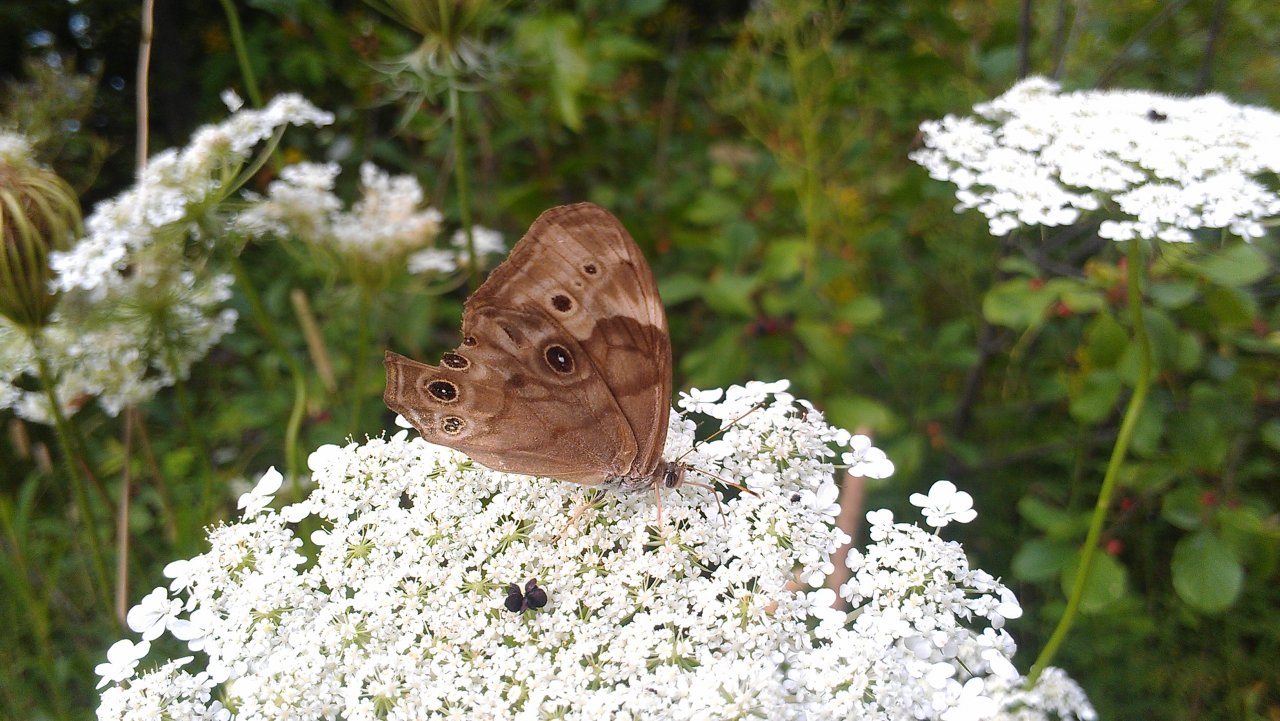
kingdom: Animalia
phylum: Arthropoda
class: Insecta
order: Lepidoptera
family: Nymphalidae
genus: Lethe
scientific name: Lethe anthedon
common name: Northern Pearly-Eye
